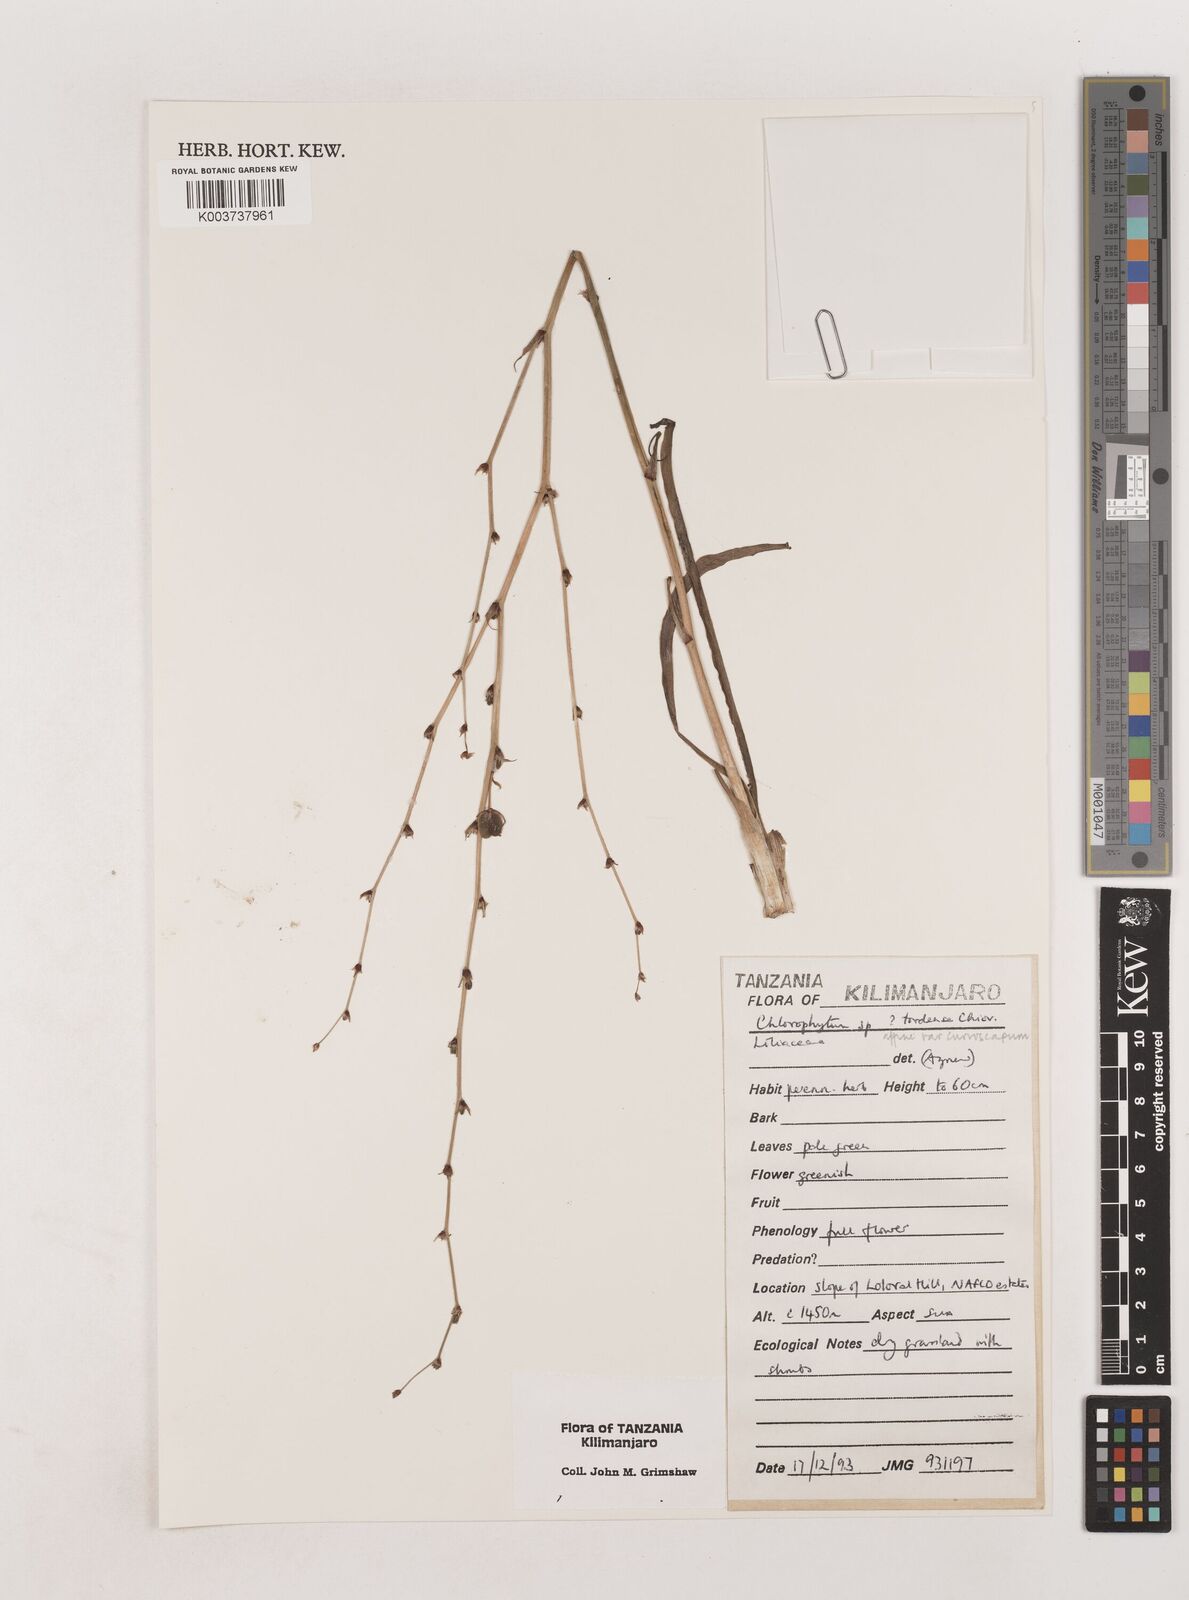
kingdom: Plantae
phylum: Tracheophyta
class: Liliopsida
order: Asparagales
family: Asparagaceae
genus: Chlorophytum
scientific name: Chlorophytum tordense
